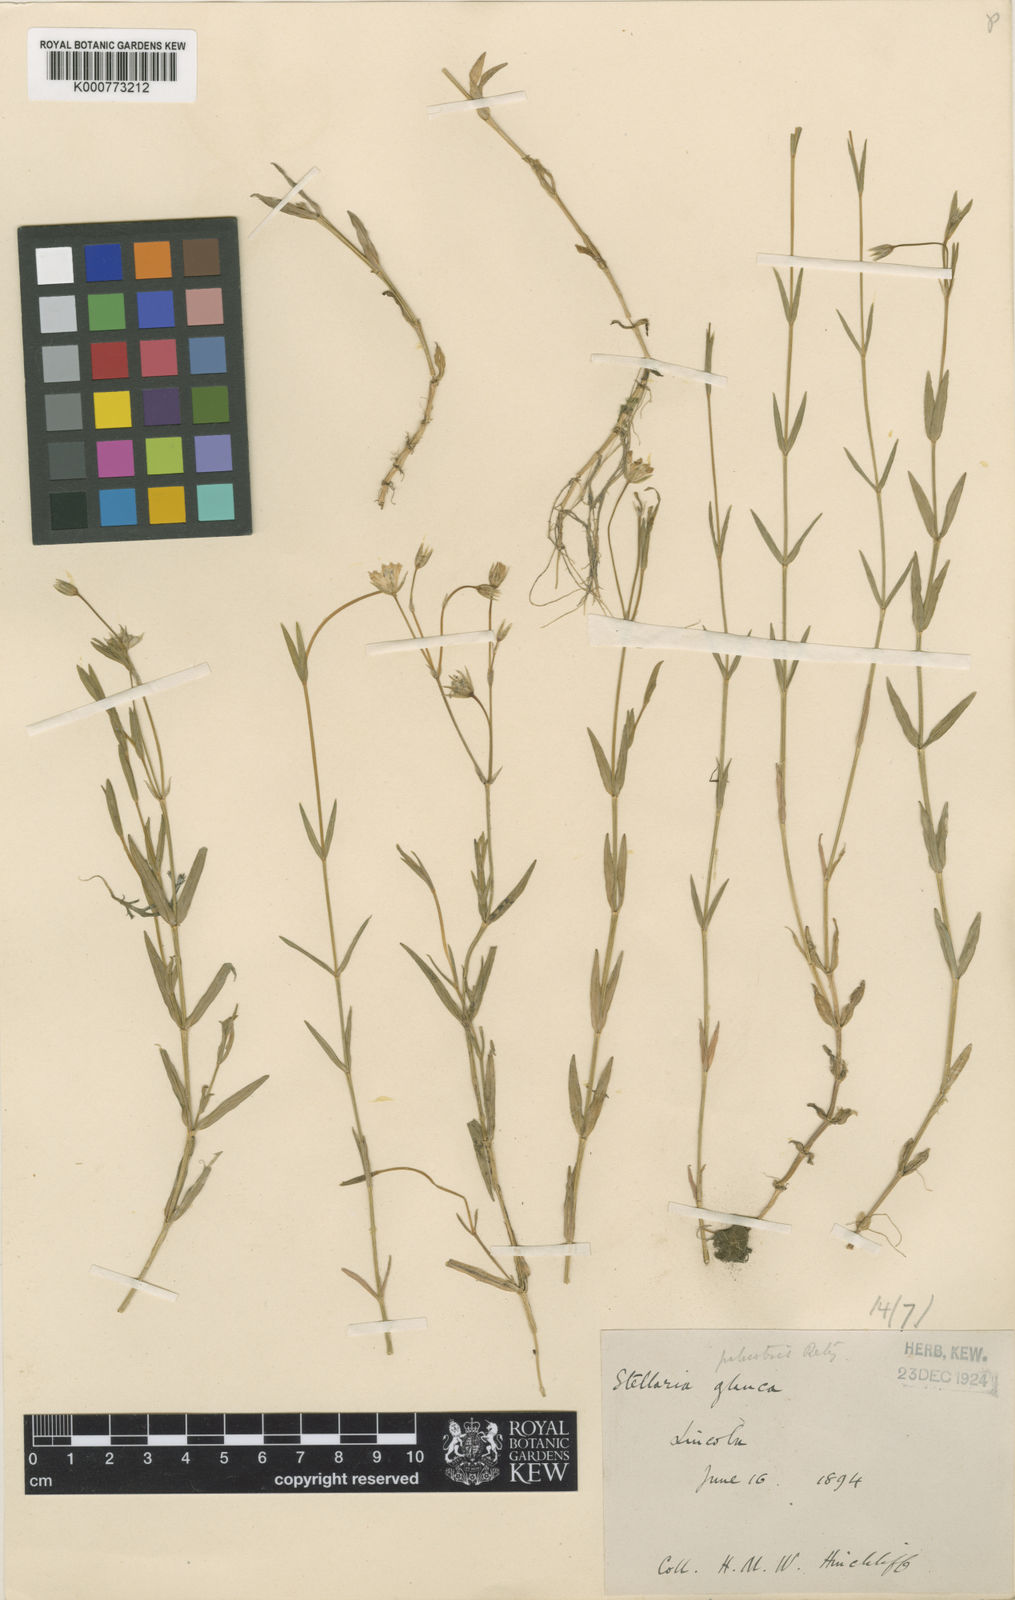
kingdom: Plantae
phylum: Tracheophyta
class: Magnoliopsida
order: Caryophyllales
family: Caryophyllaceae
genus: Stellaria
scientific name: Stellaria
